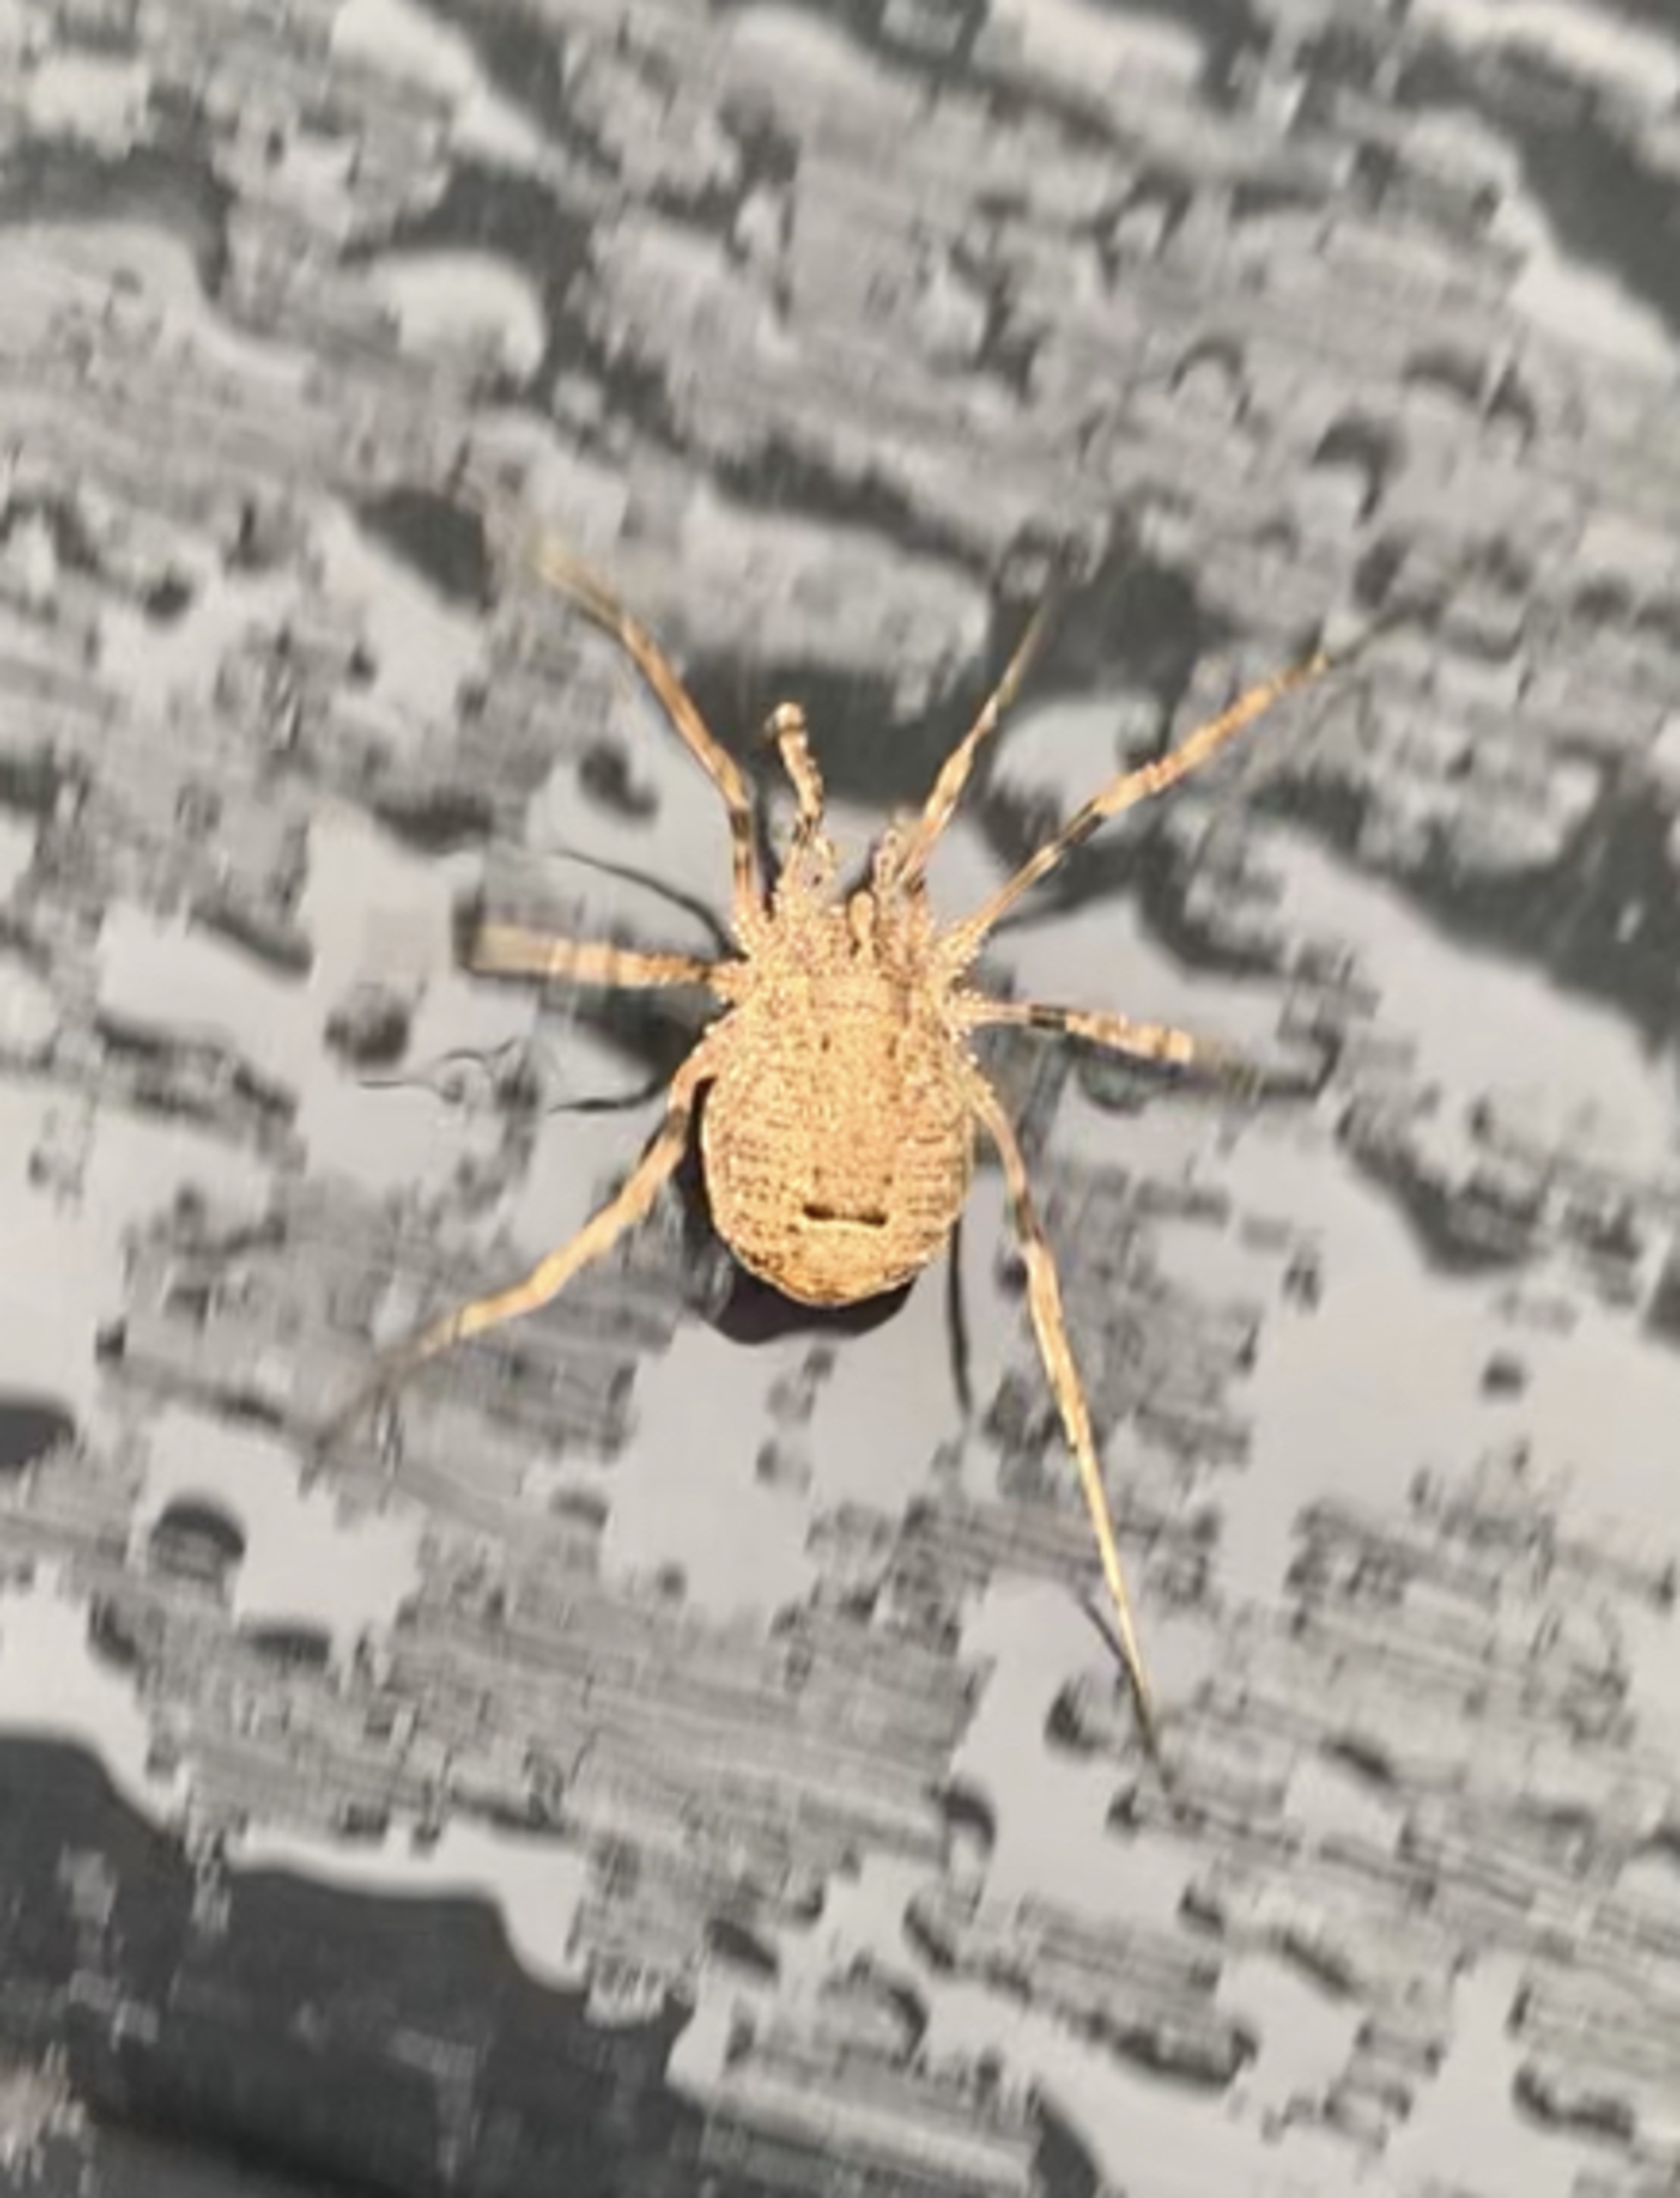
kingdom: Animalia
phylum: Arthropoda
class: Arachnida
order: Opiliones
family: Phalangiidae
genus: Odiellus
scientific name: Odiellus spinosus
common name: Kæmpemejer
